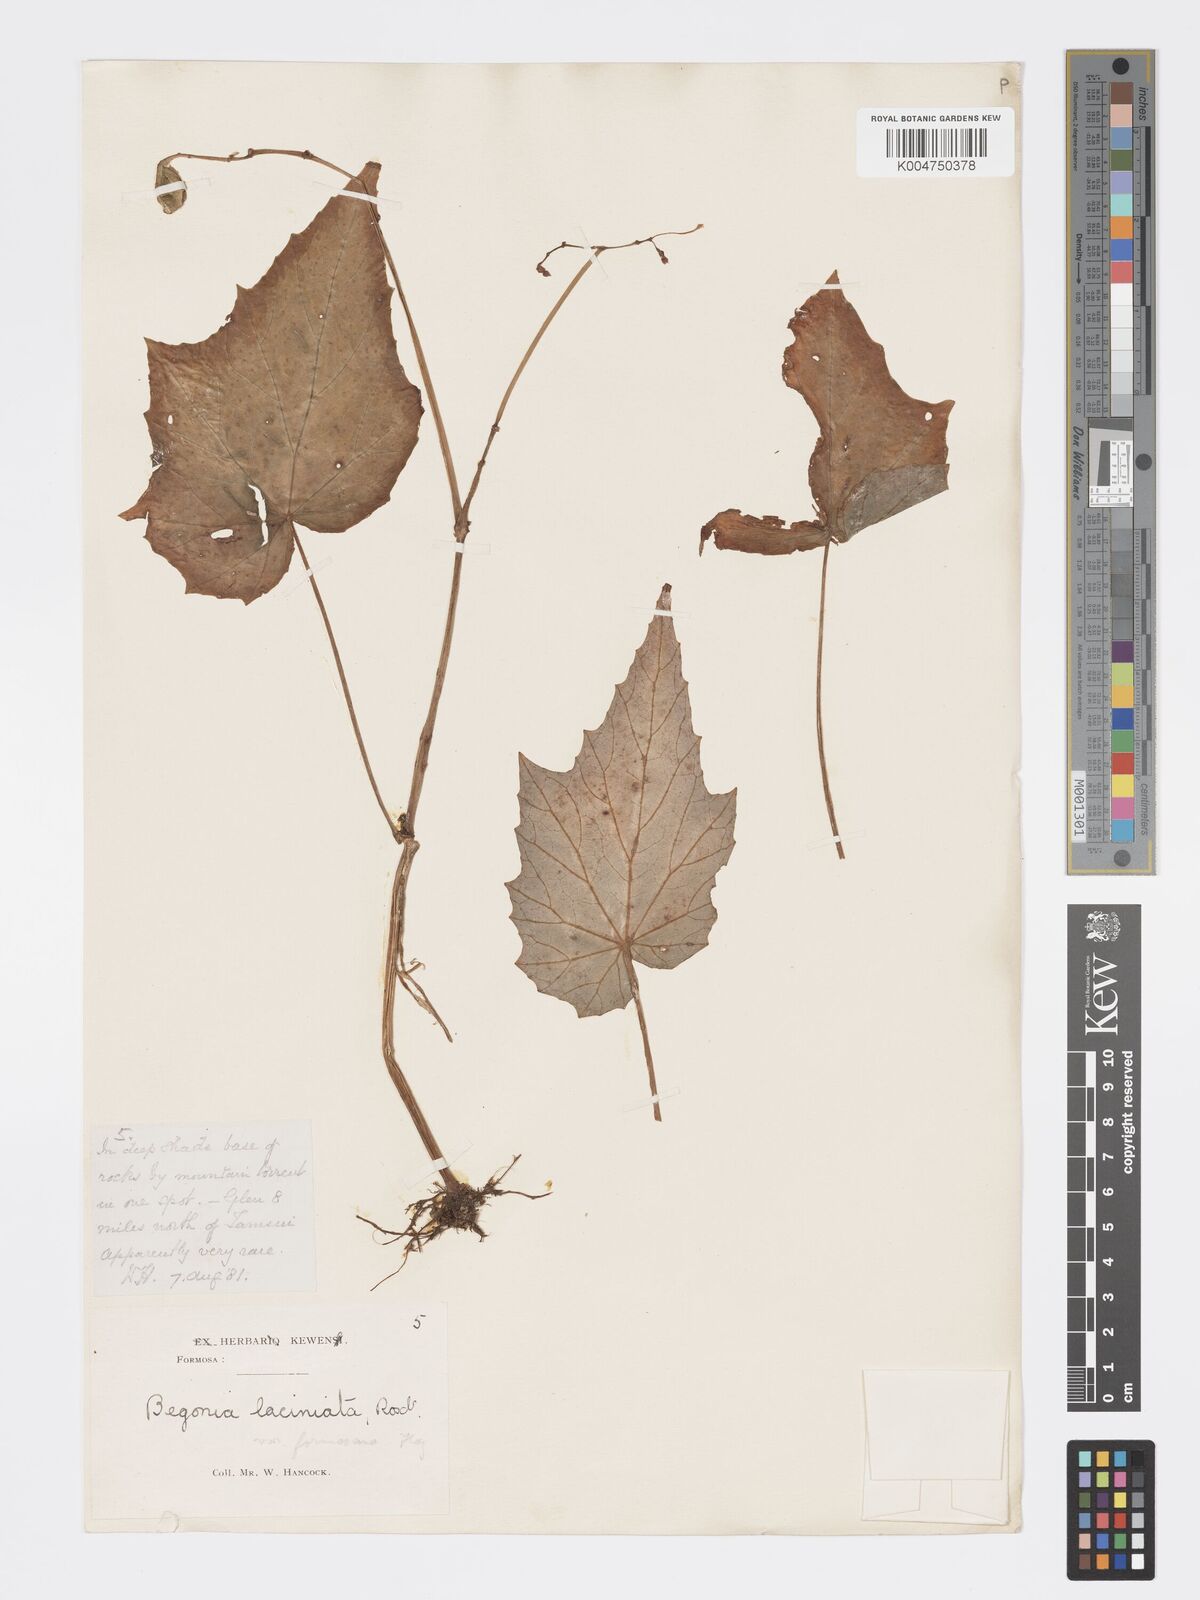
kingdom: Plantae
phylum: Tracheophyta
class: Magnoliopsida
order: Cucurbitales
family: Begoniaceae
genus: Begonia
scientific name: Begonia palmata
